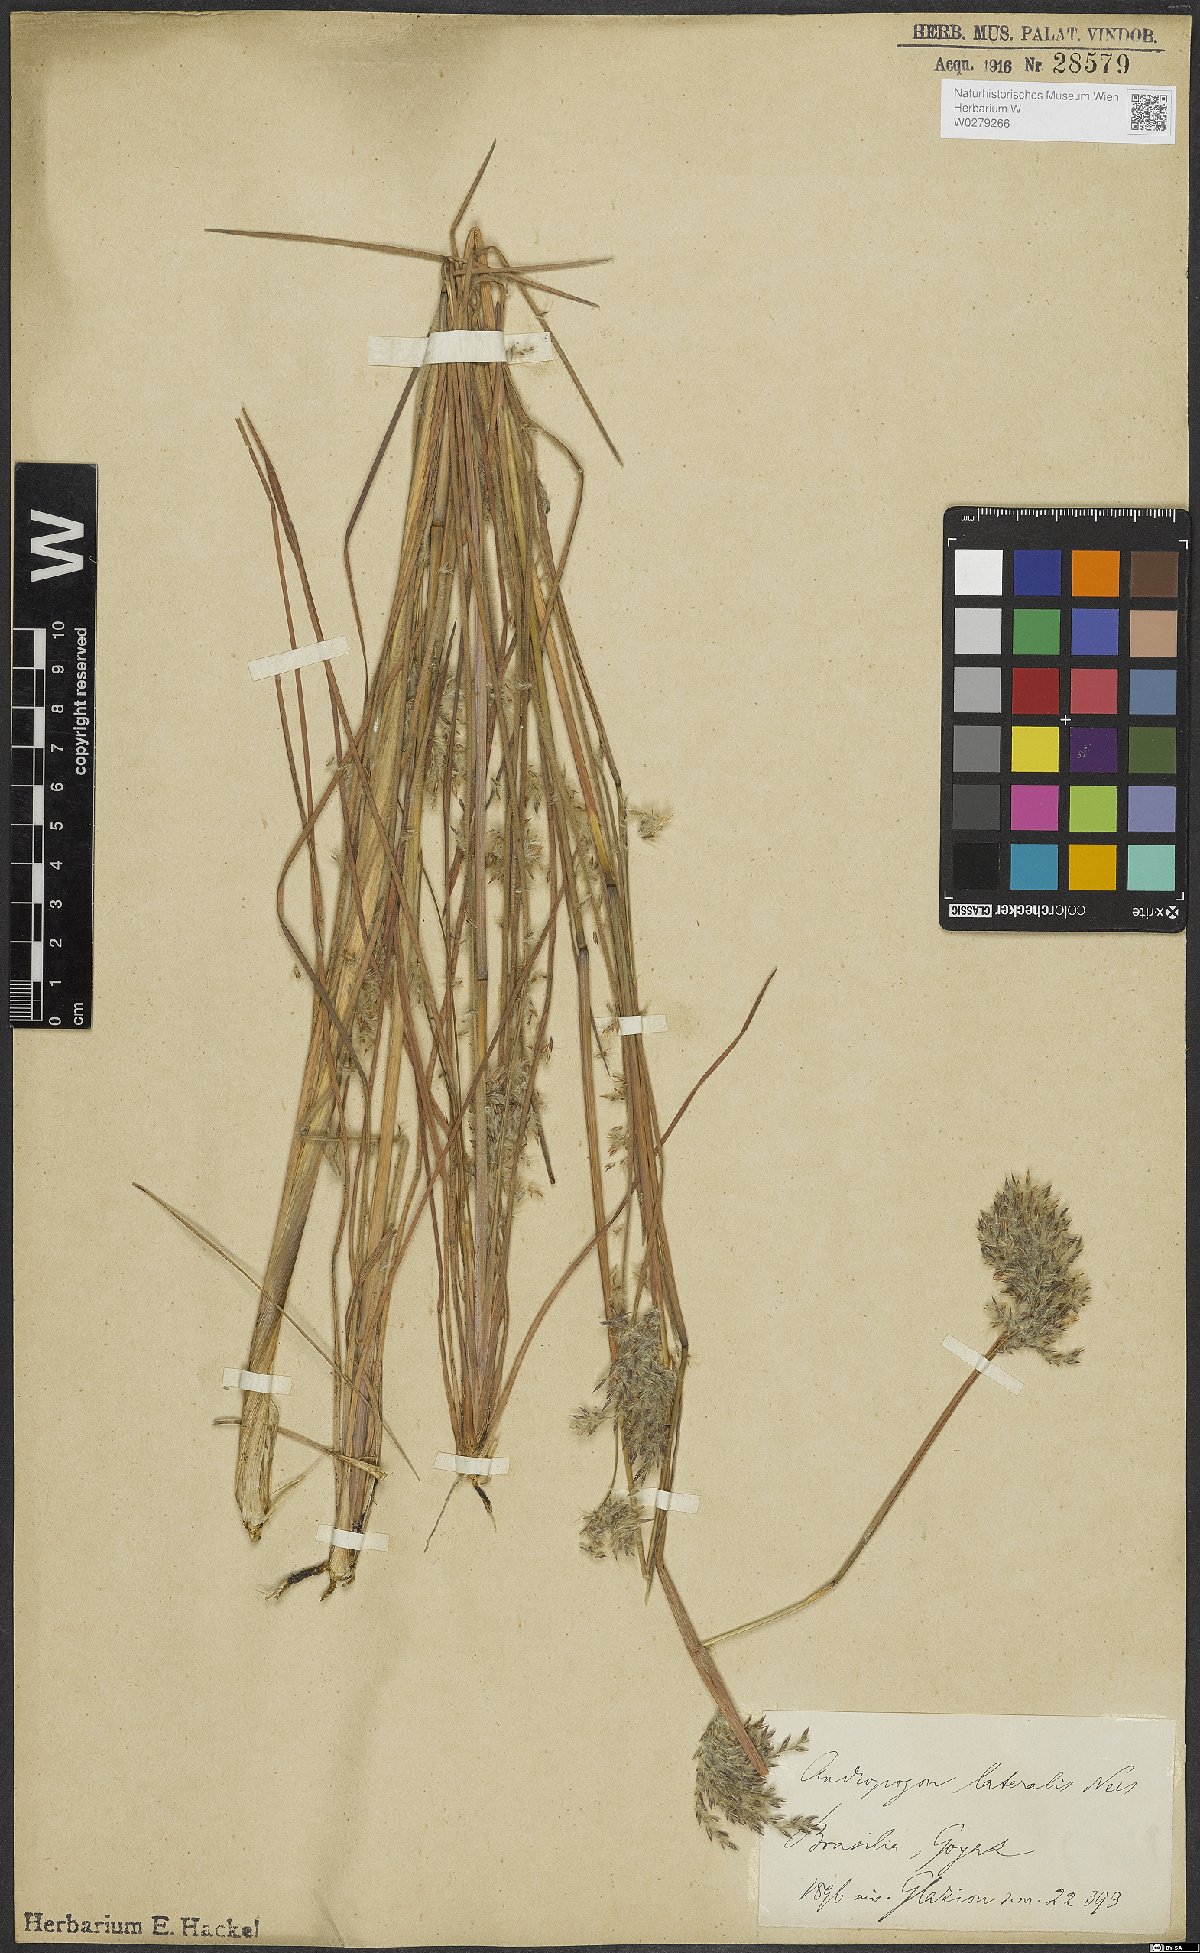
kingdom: Plantae
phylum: Tracheophyta
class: Liliopsida
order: Poales
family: Poaceae
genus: Andropogon
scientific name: Andropogon lateralis
